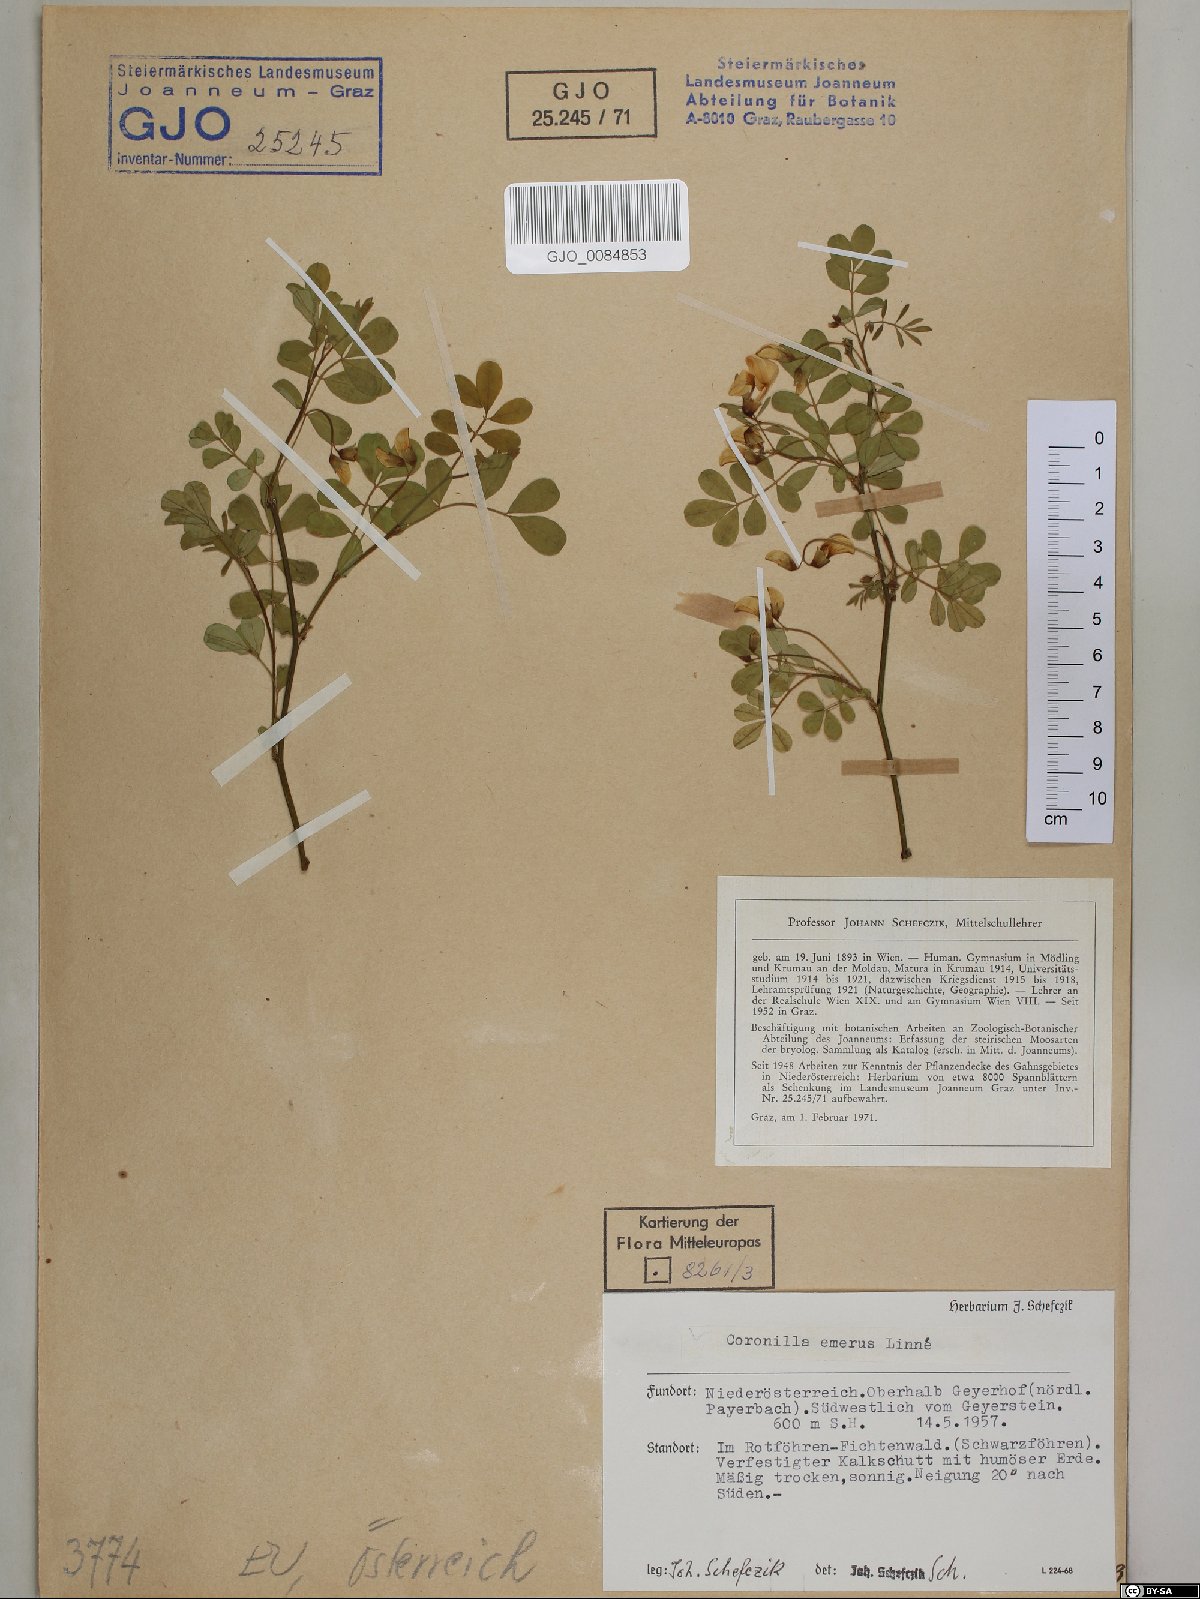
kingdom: Plantae
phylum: Tracheophyta
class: Magnoliopsida
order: Fabales
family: Fabaceae
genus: Hippocrepis
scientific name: Hippocrepis emerus
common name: Scorpion senna
